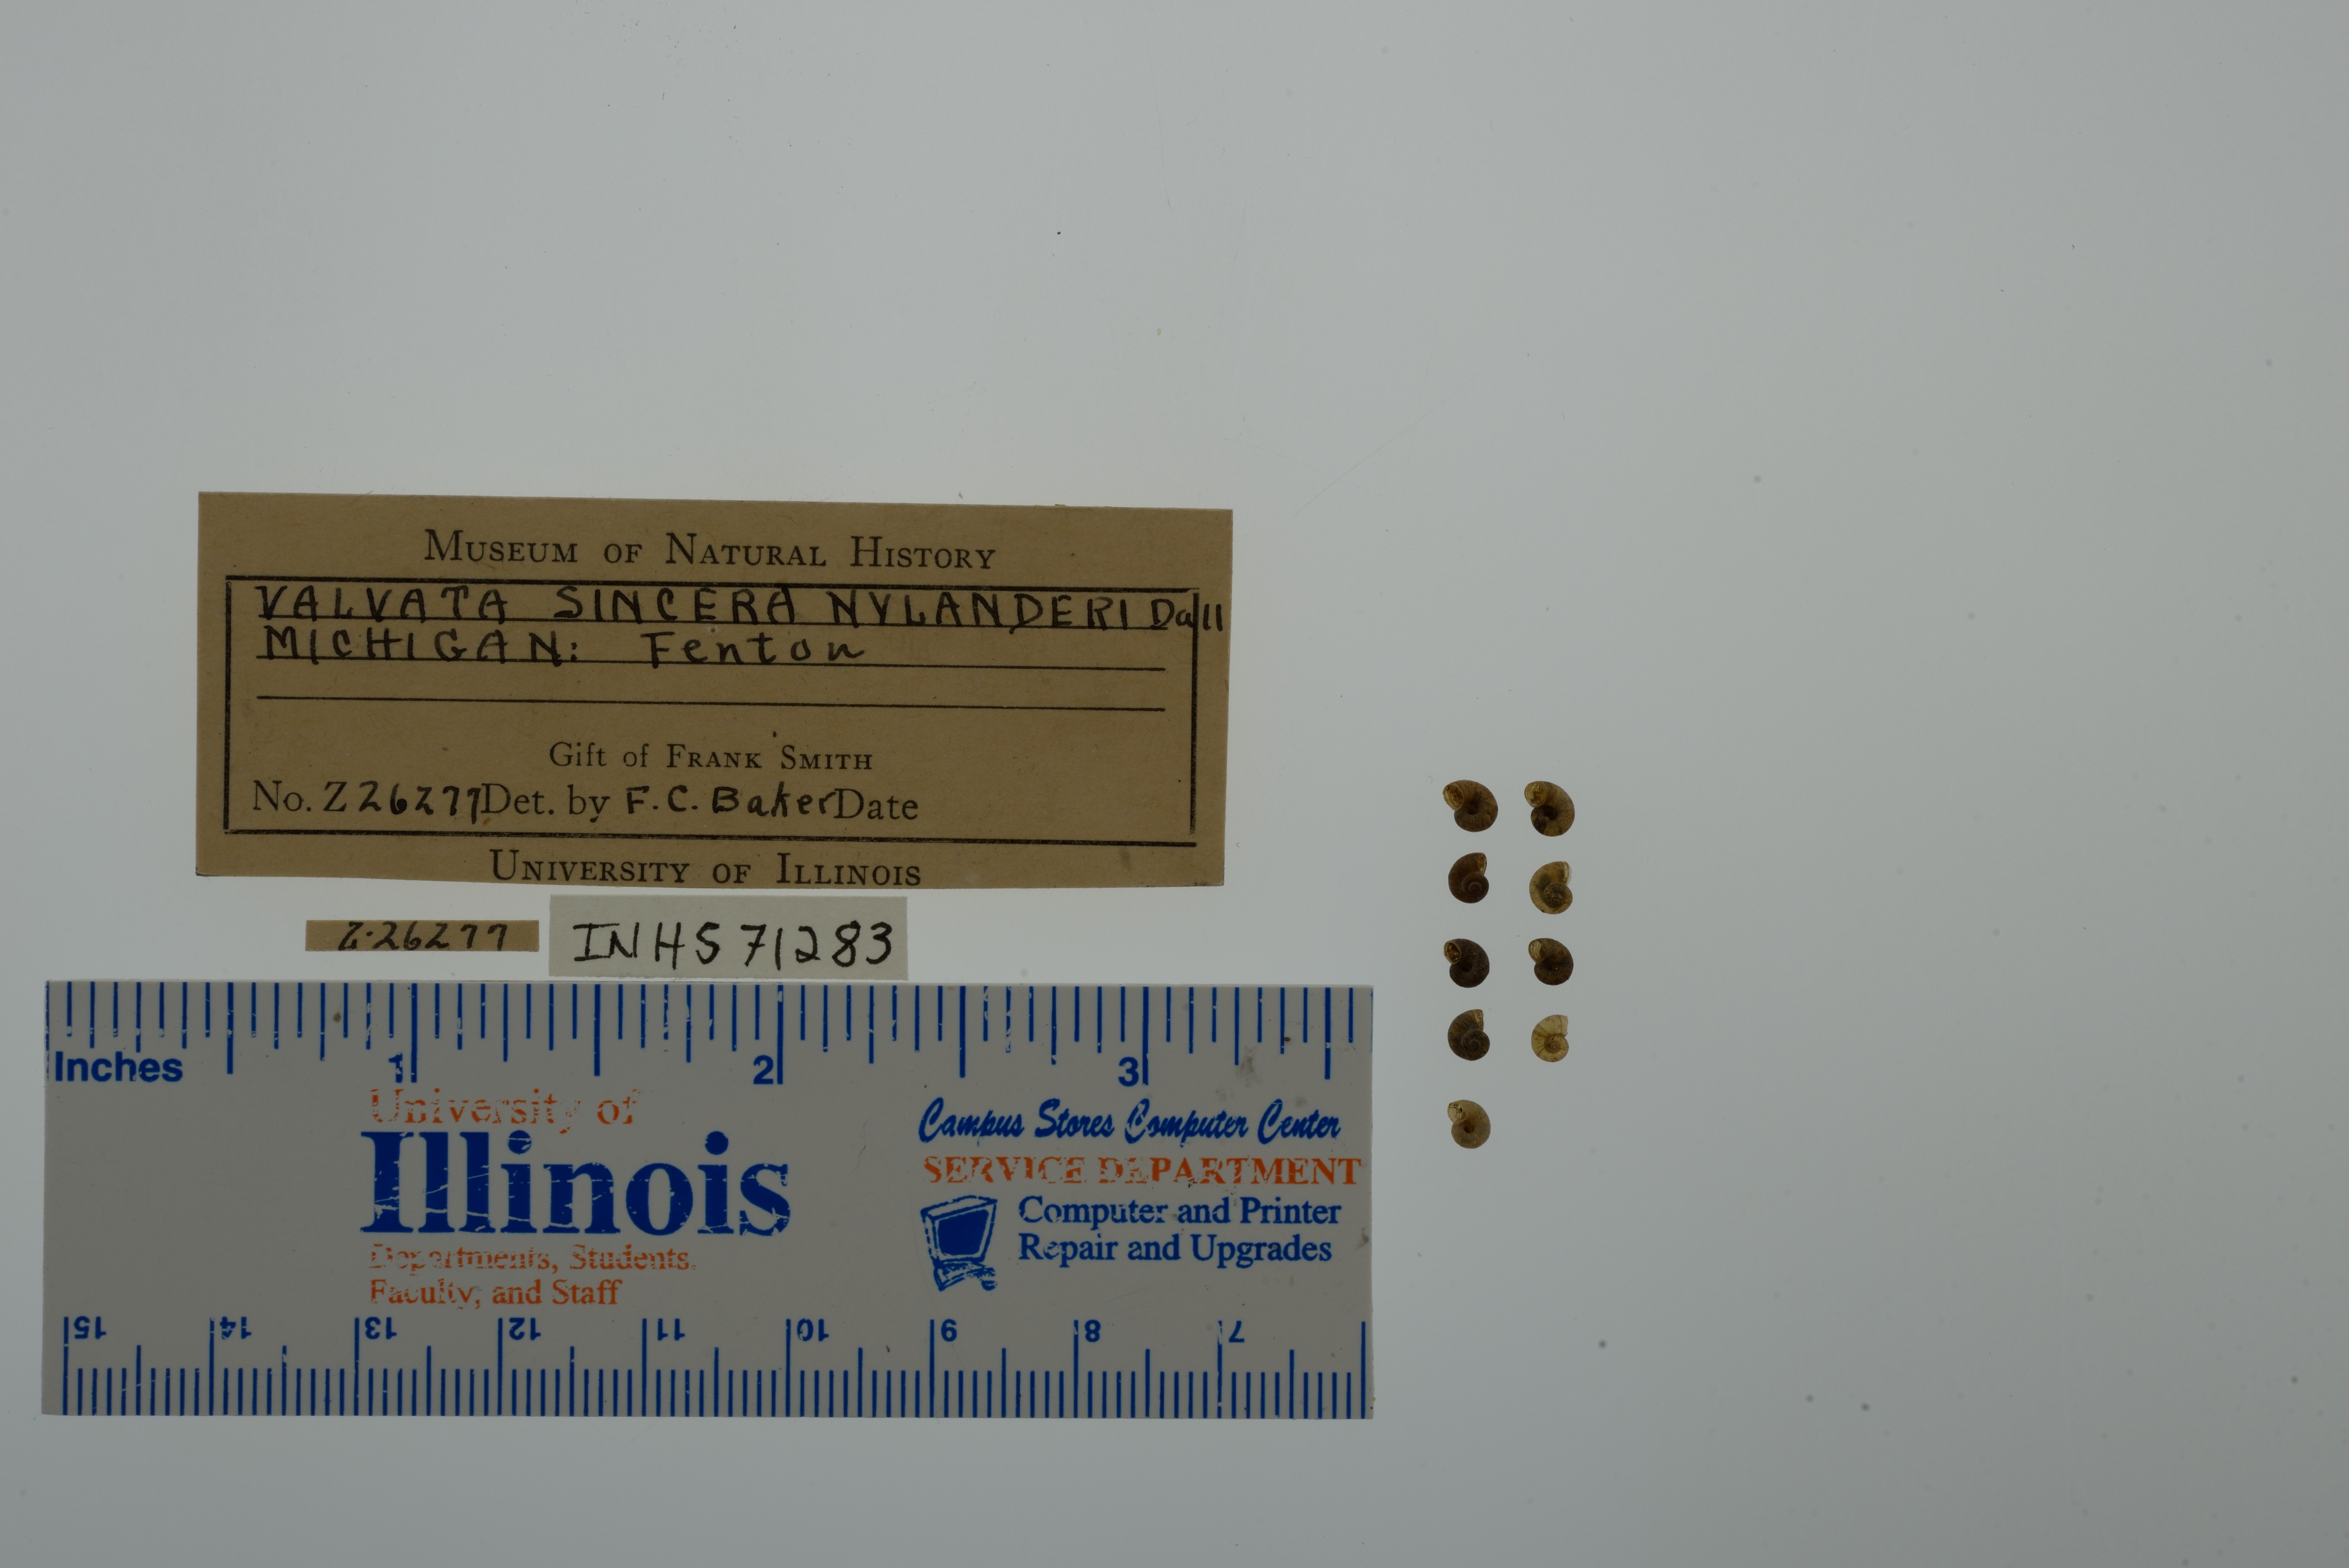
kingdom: Animalia
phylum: Mollusca
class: Gastropoda
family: Valvatidae
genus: Valvata
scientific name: Valvata sincera
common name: Mossy valvata
